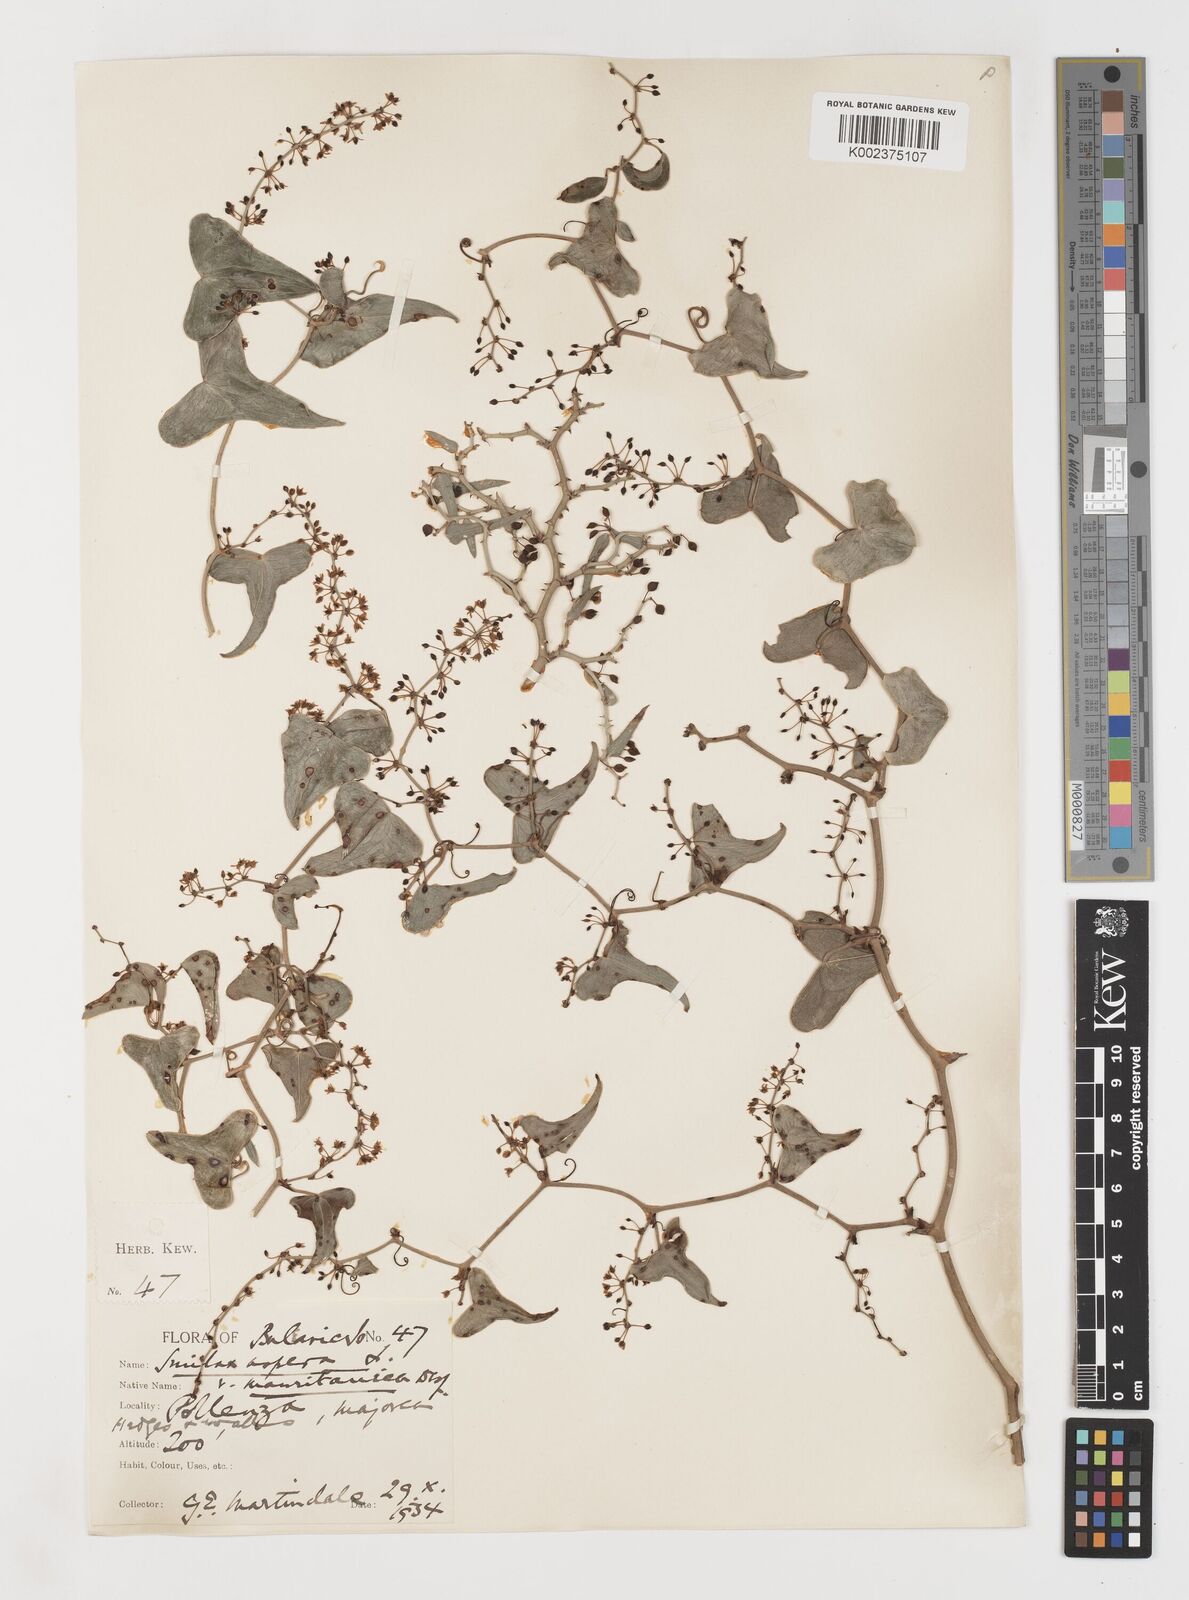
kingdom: Plantae
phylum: Tracheophyta
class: Liliopsida
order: Liliales
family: Smilacaceae
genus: Smilax
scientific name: Smilax aspera
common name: Common smilax
